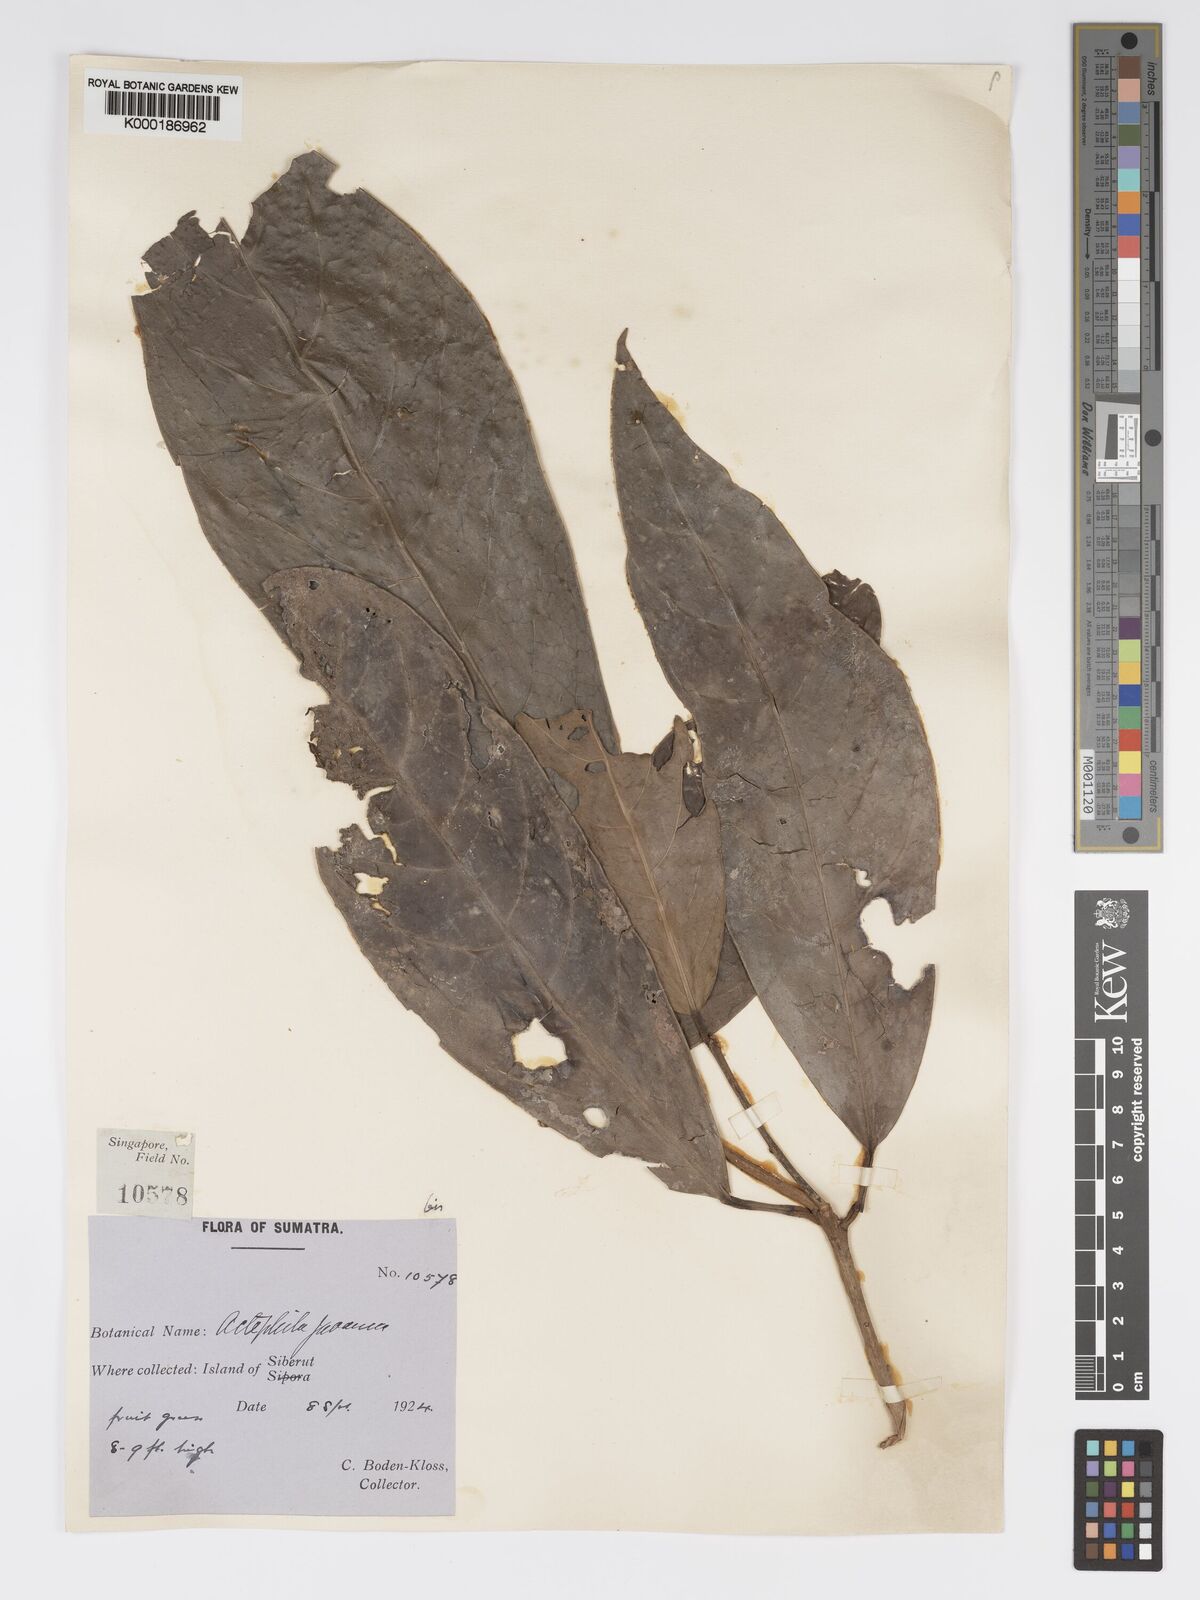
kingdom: Plantae
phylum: Tracheophyta
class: Magnoliopsida
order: Malpighiales
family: Phyllanthaceae
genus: Actephila
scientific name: Actephila
